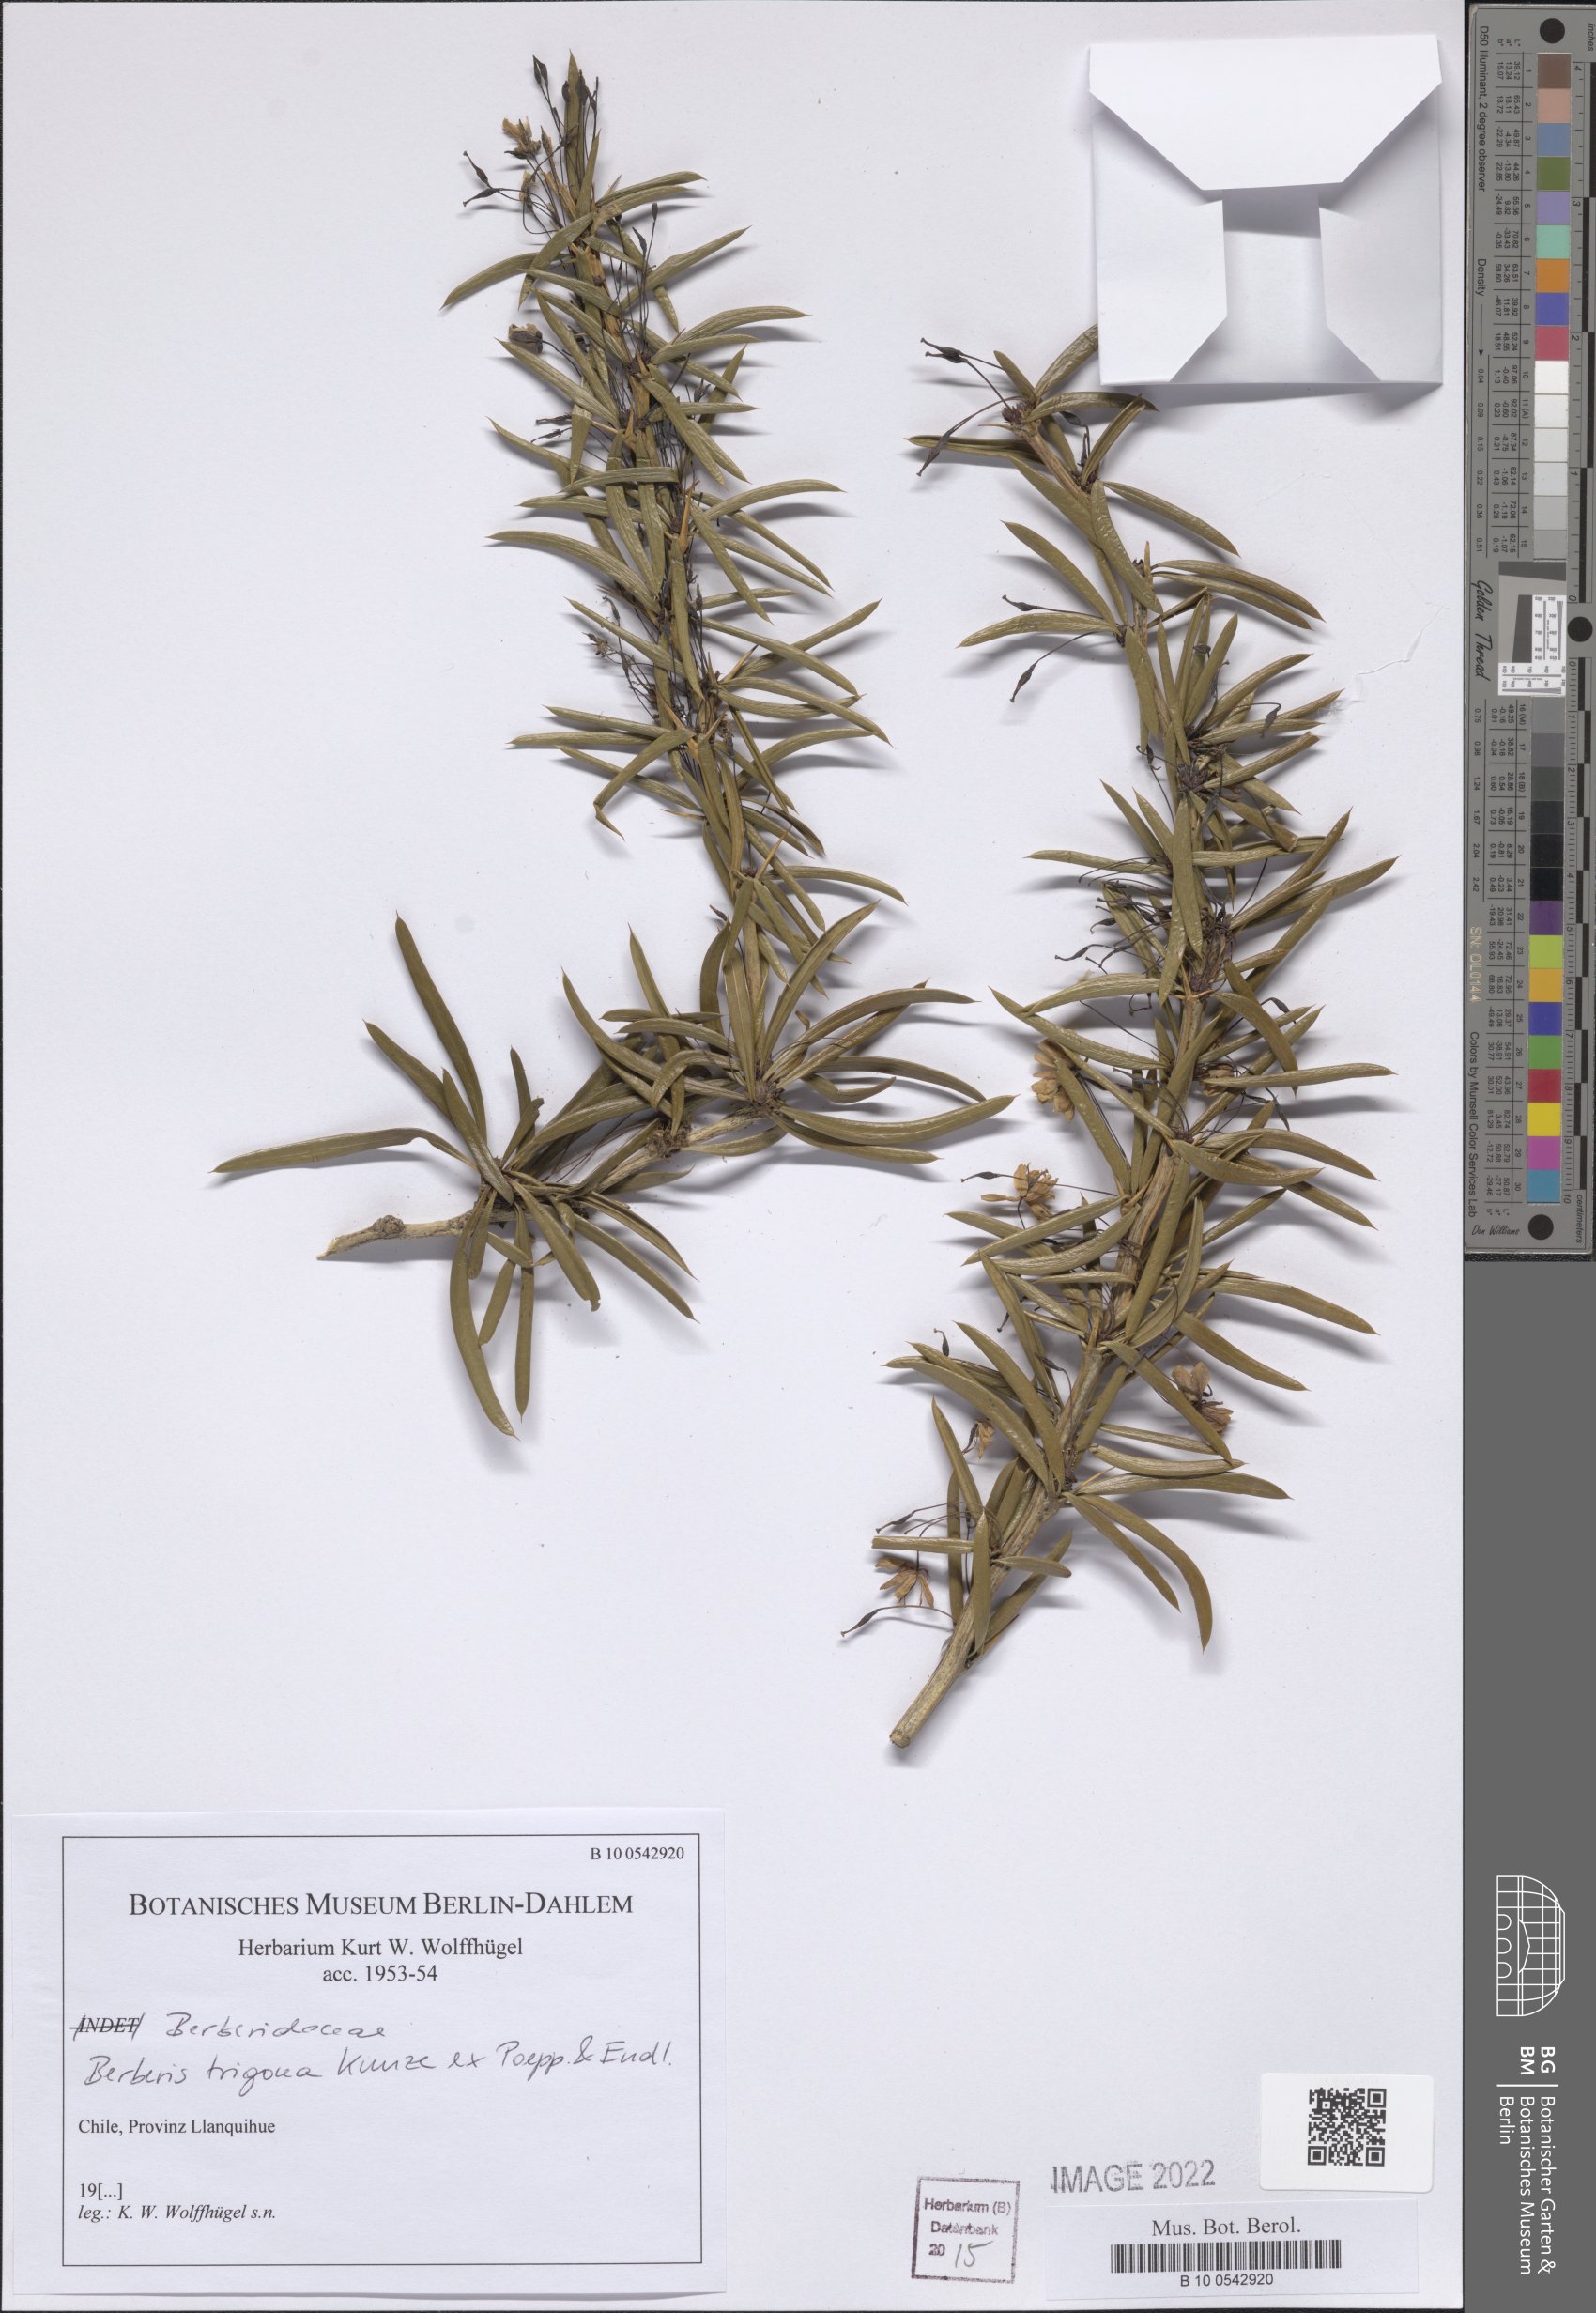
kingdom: Plantae
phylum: Tracheophyta
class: Magnoliopsida
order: Ranunculales
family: Berberidaceae
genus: Berberis
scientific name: Berberis trigona
